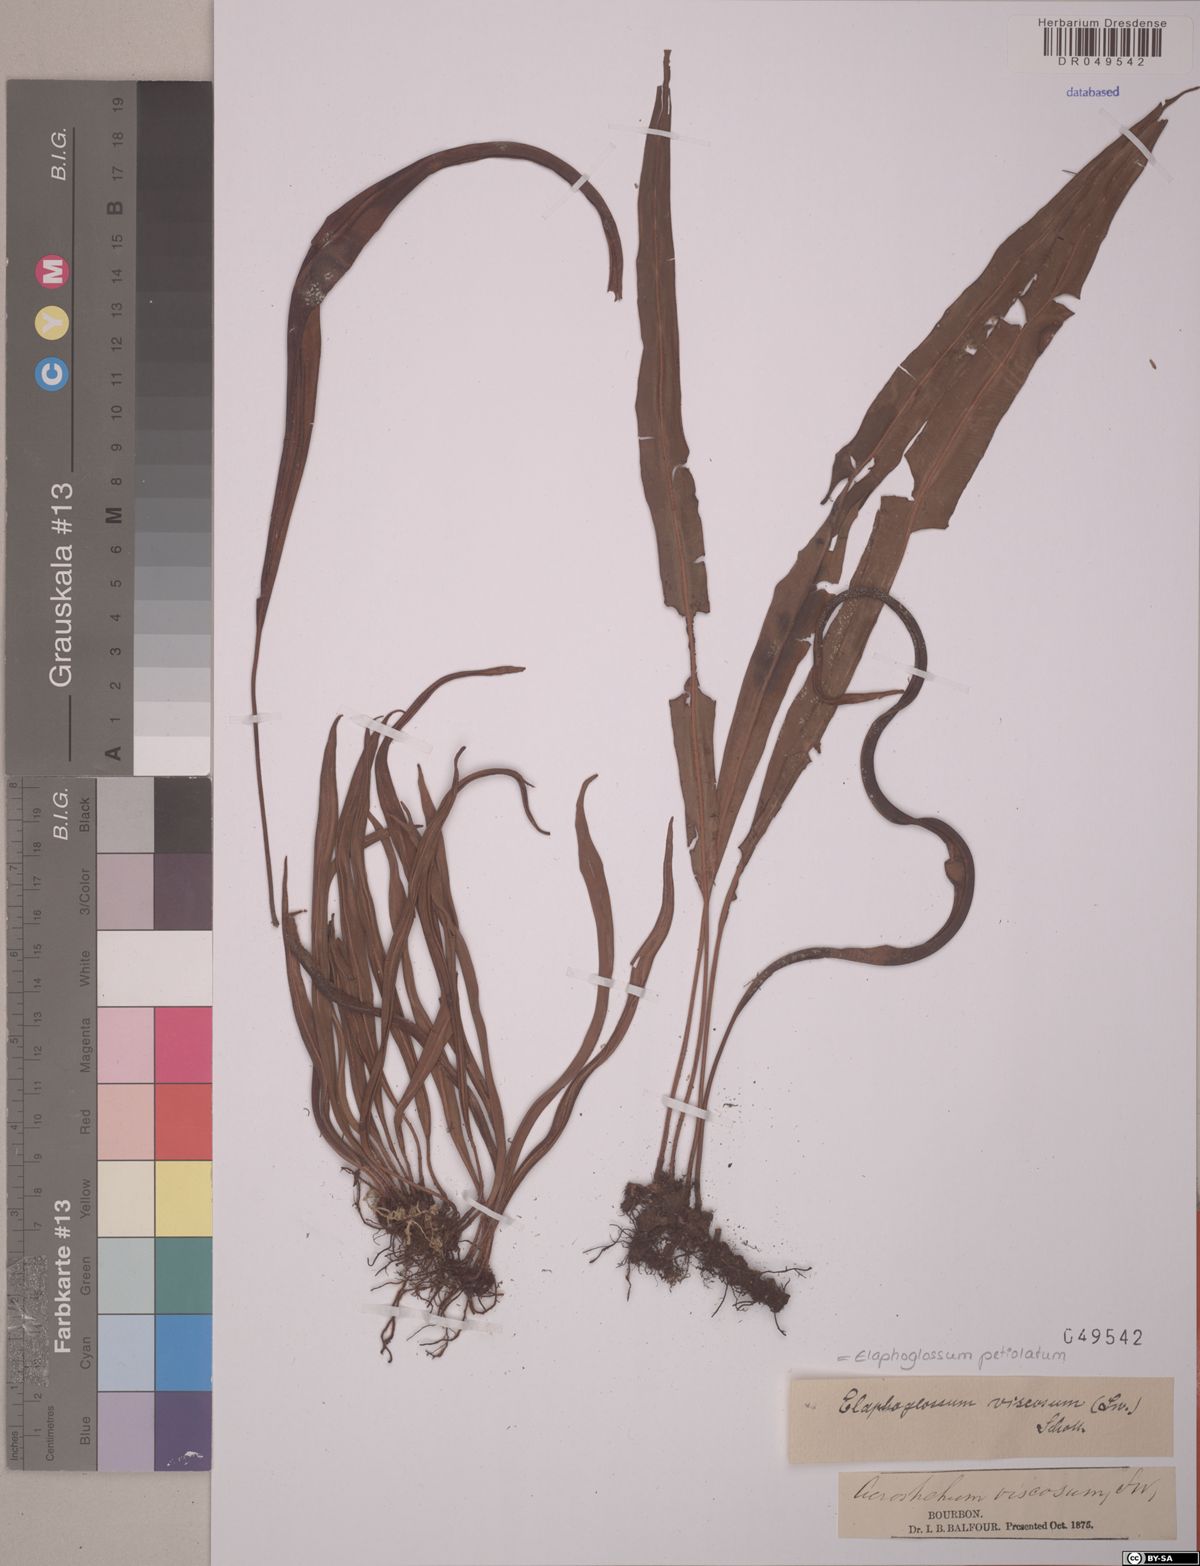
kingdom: Plantae
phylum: Tracheophyta
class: Polypodiopsida
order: Polypodiales
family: Dryopteridaceae
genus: Elaphoglossum
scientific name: Elaphoglossum petiolatum
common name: Graceful tonguefern
